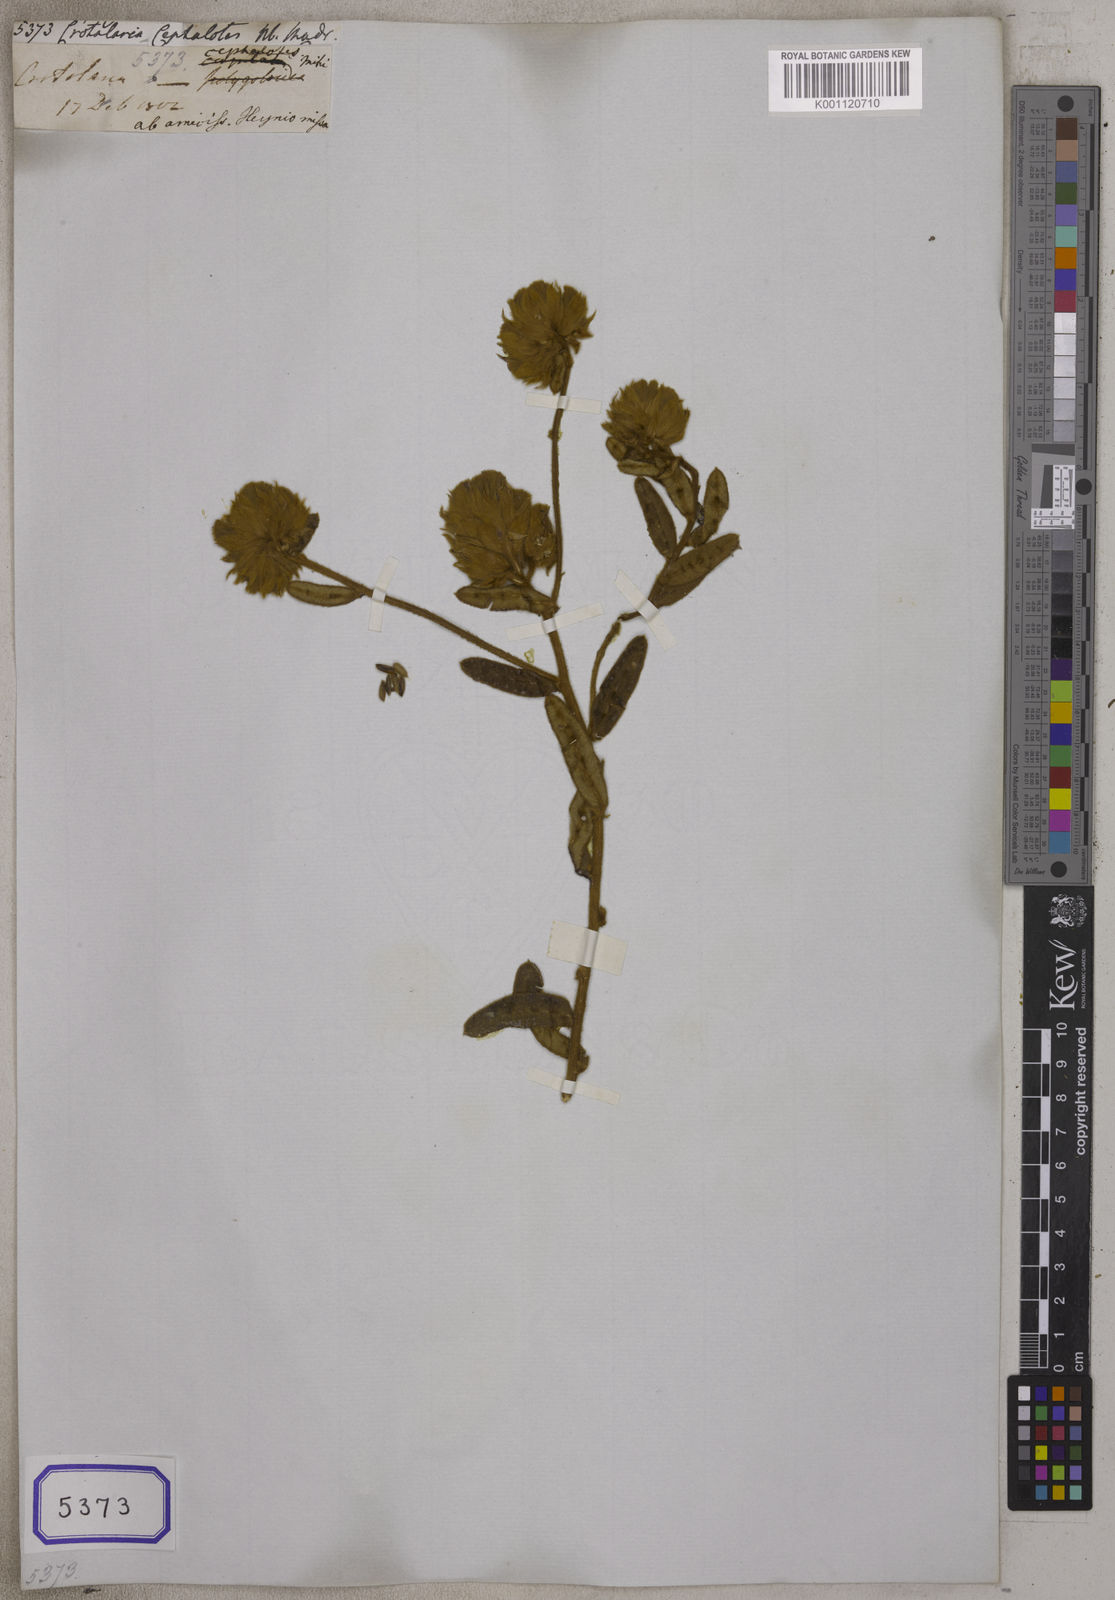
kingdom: Plantae
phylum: Tracheophyta
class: Magnoliopsida
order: Fabales
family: Fabaceae
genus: Crotalaria
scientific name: Crotalaria
